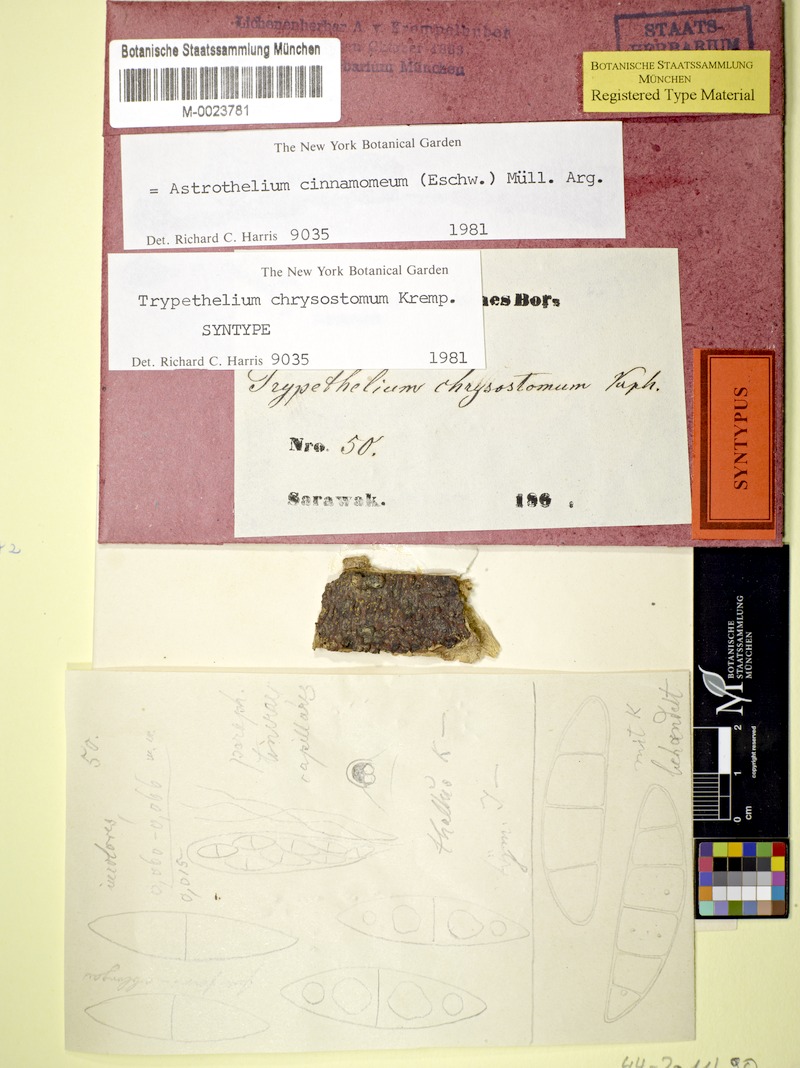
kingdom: Fungi
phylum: Ascomycota
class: Dothideomycetes
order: Trypetheliales
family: Trypetheliaceae
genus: Astrothelium
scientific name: Astrothelium cinnamomeum
